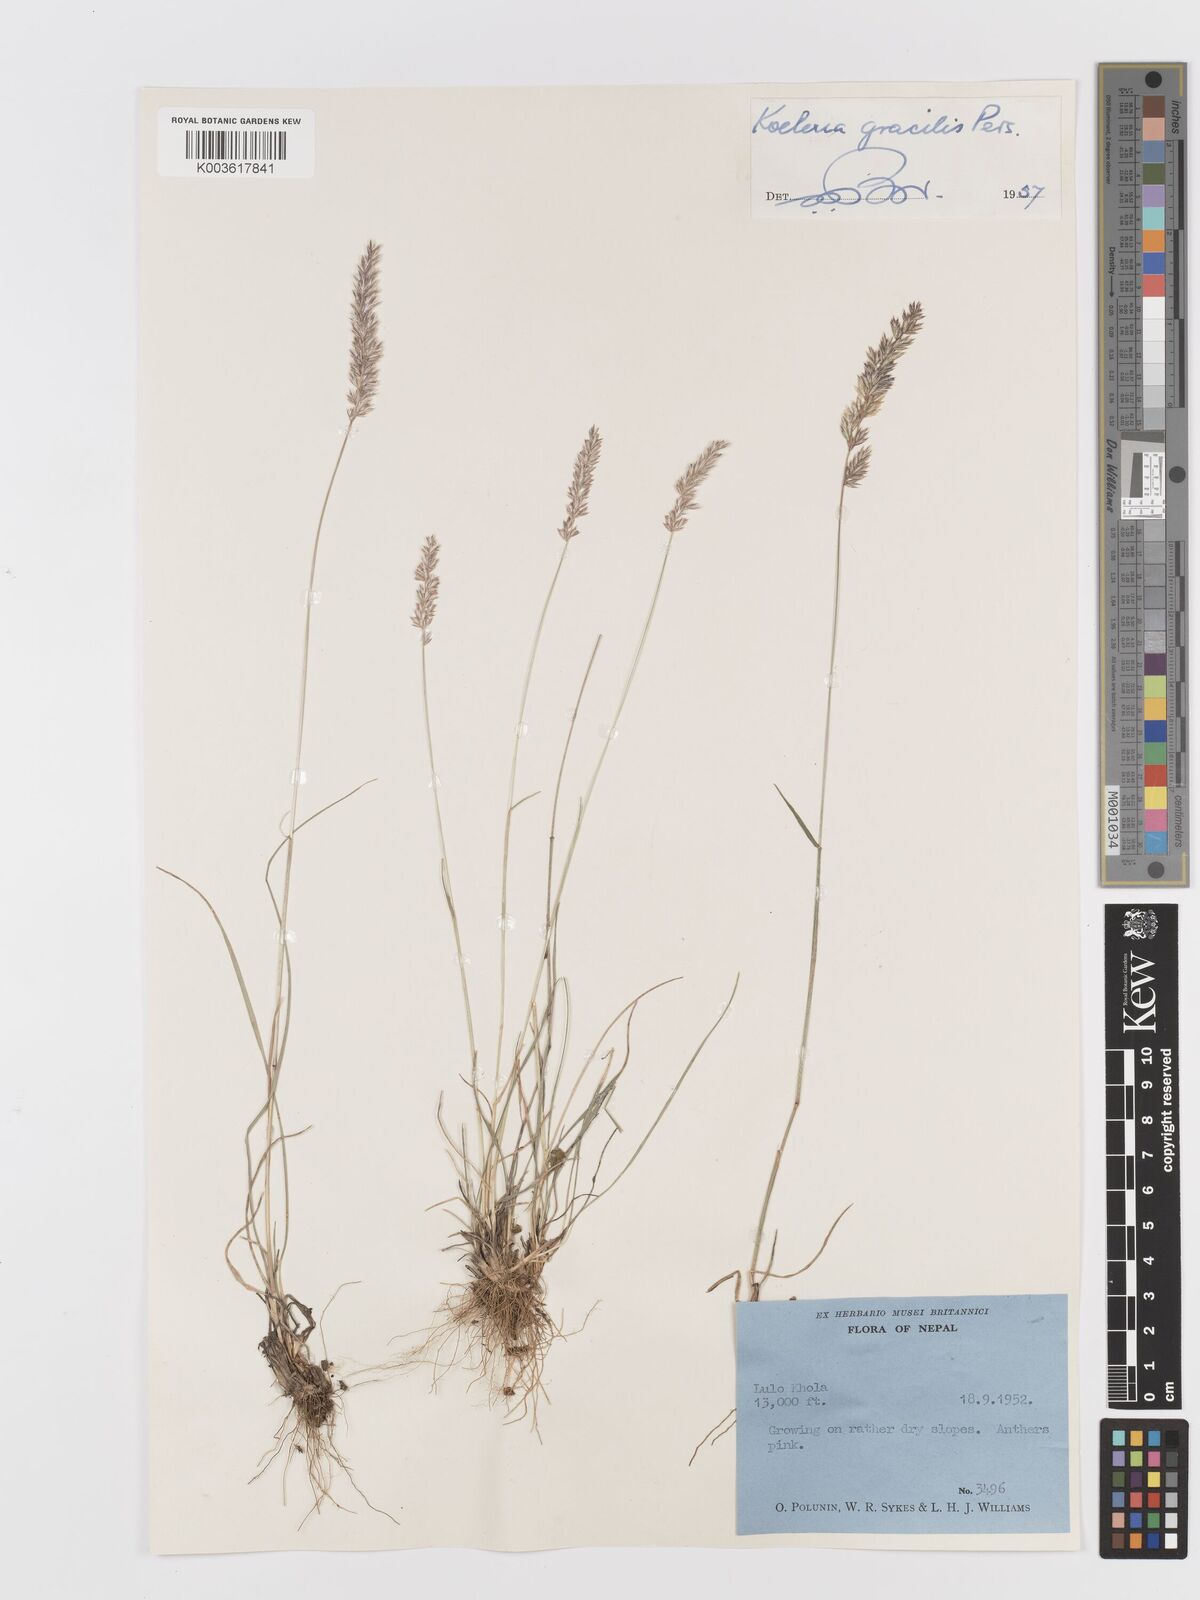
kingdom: Plantae
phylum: Tracheophyta
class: Liliopsida
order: Poales
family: Poaceae
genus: Koeleria
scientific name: Koeleria macrantha
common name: Crested hair-grass
